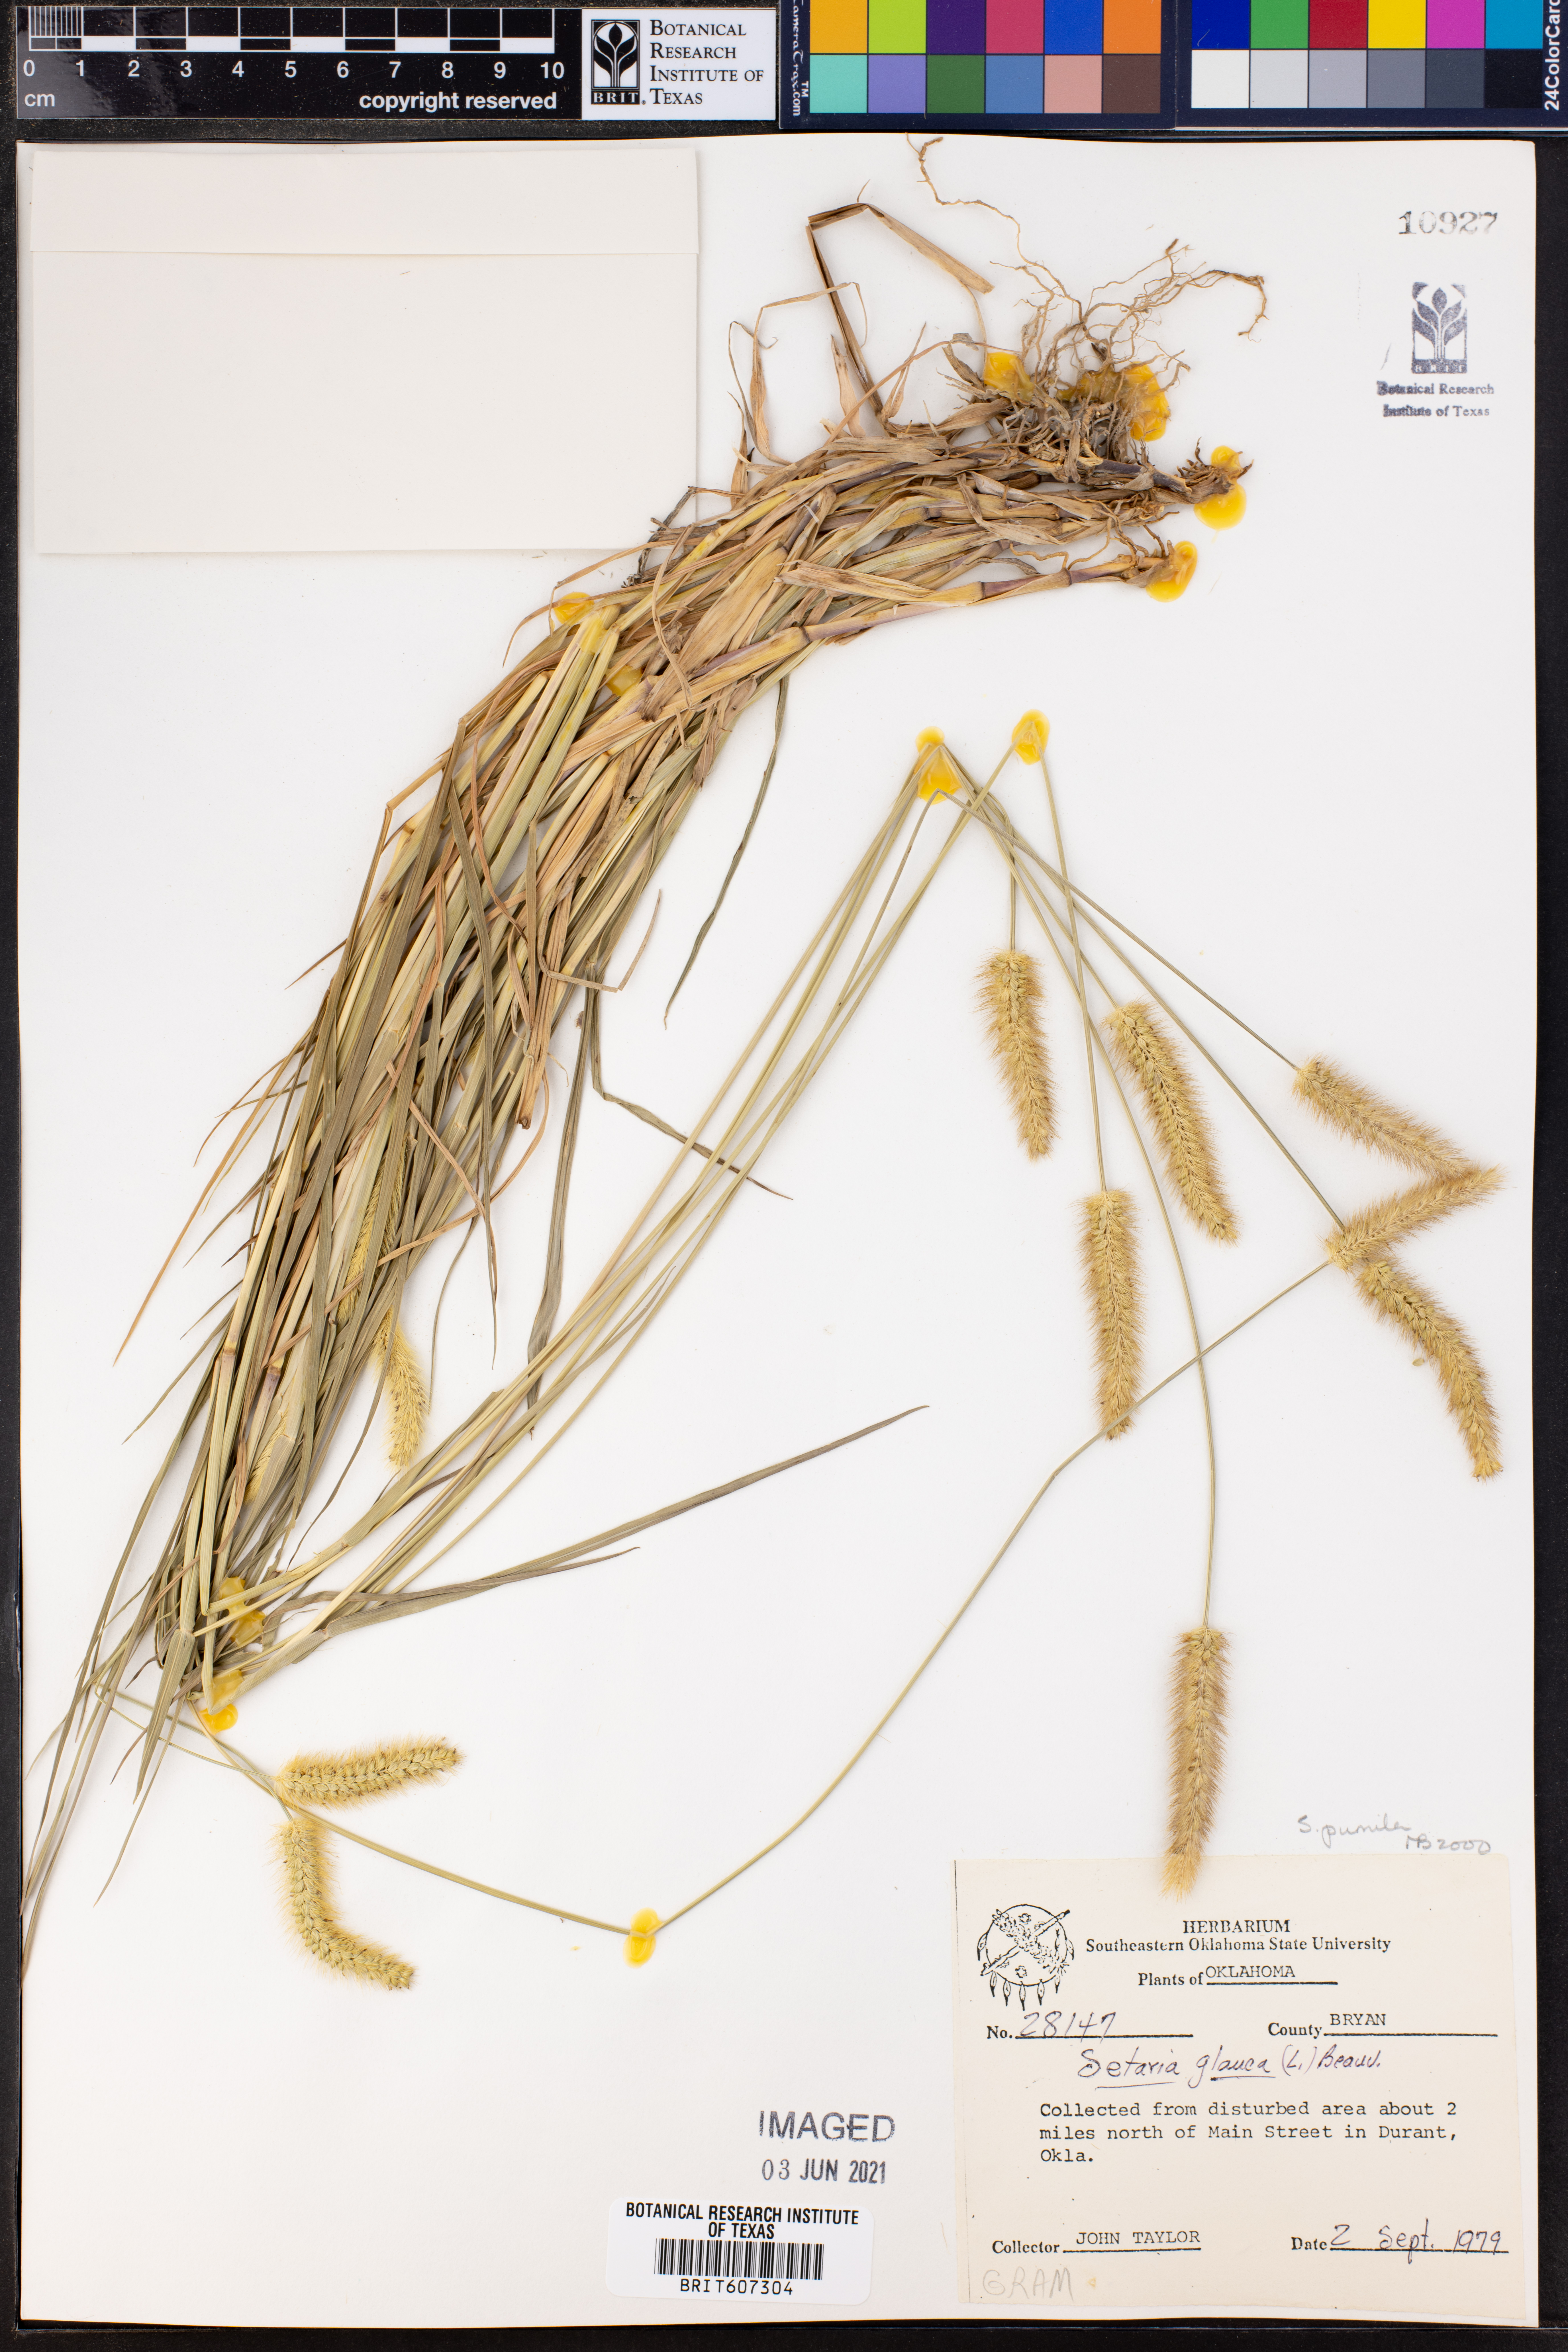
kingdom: Plantae
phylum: Tracheophyta
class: Liliopsida
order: Poales
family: Poaceae
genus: Setaria
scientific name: Setaria pumila
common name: Yellow bristle-grass
